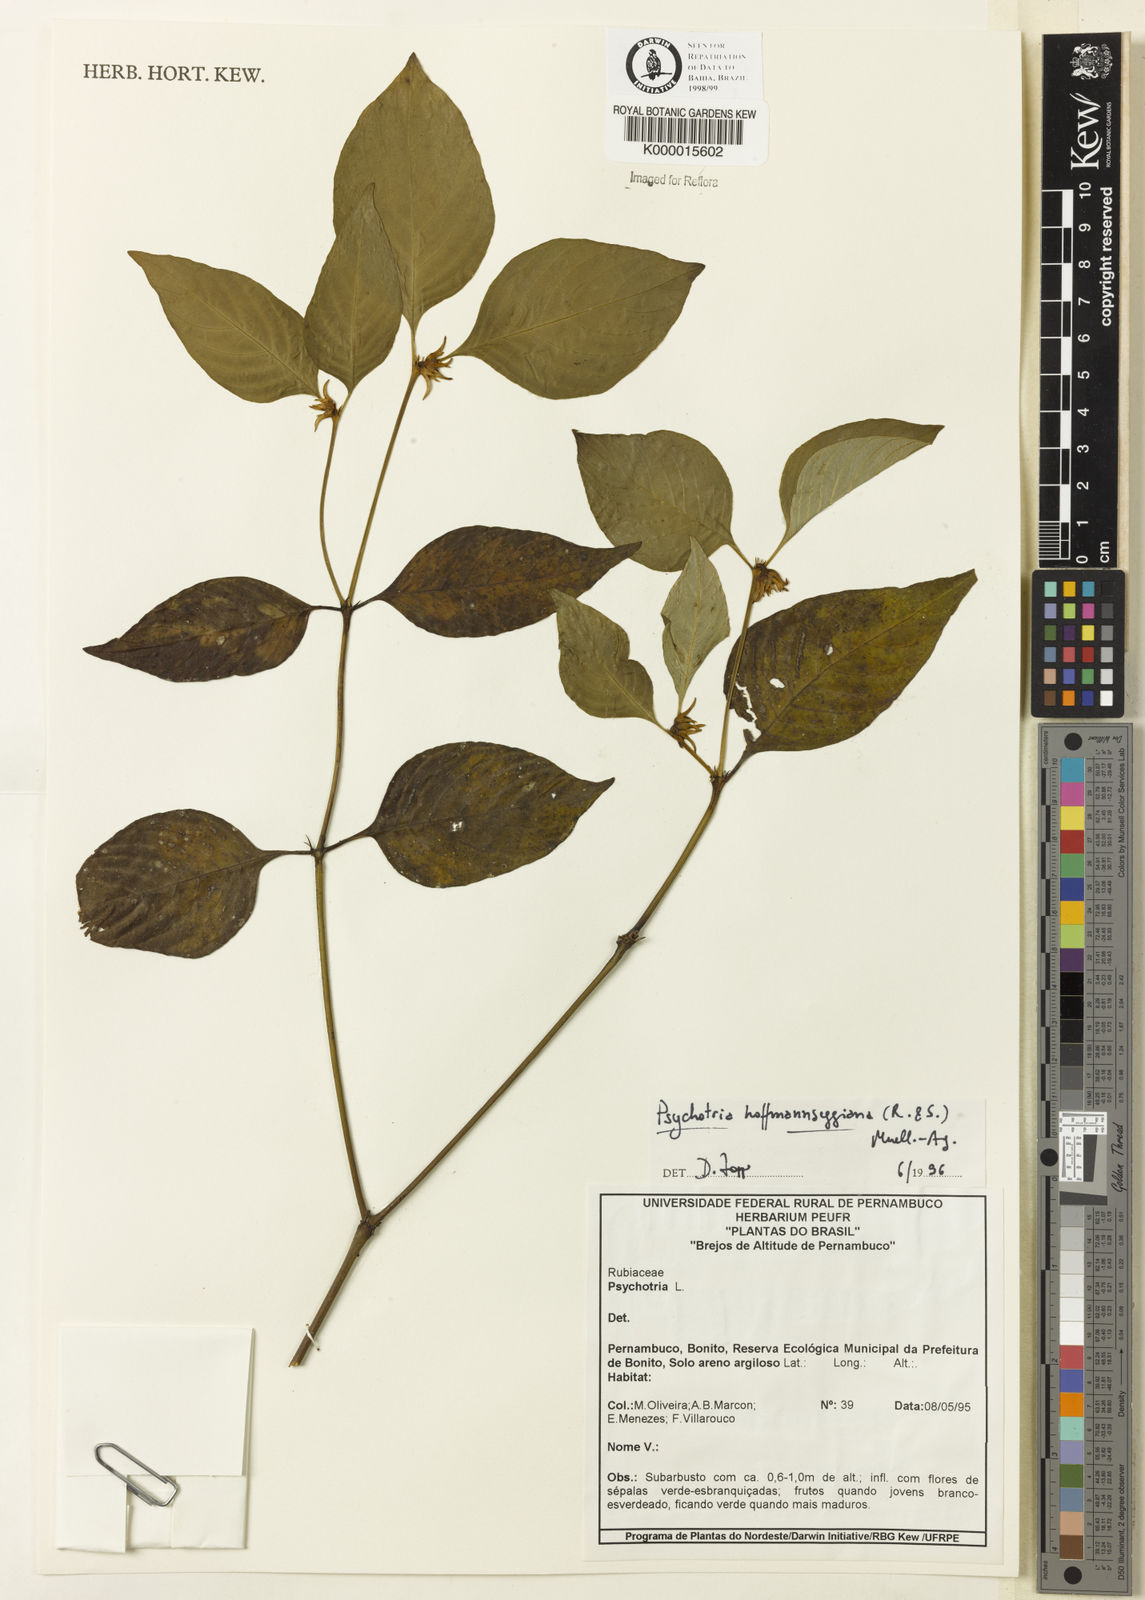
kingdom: Plantae
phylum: Tracheophyta
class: Magnoliopsida
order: Gentianales
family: Rubiaceae
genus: Psychotria
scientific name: Psychotria
